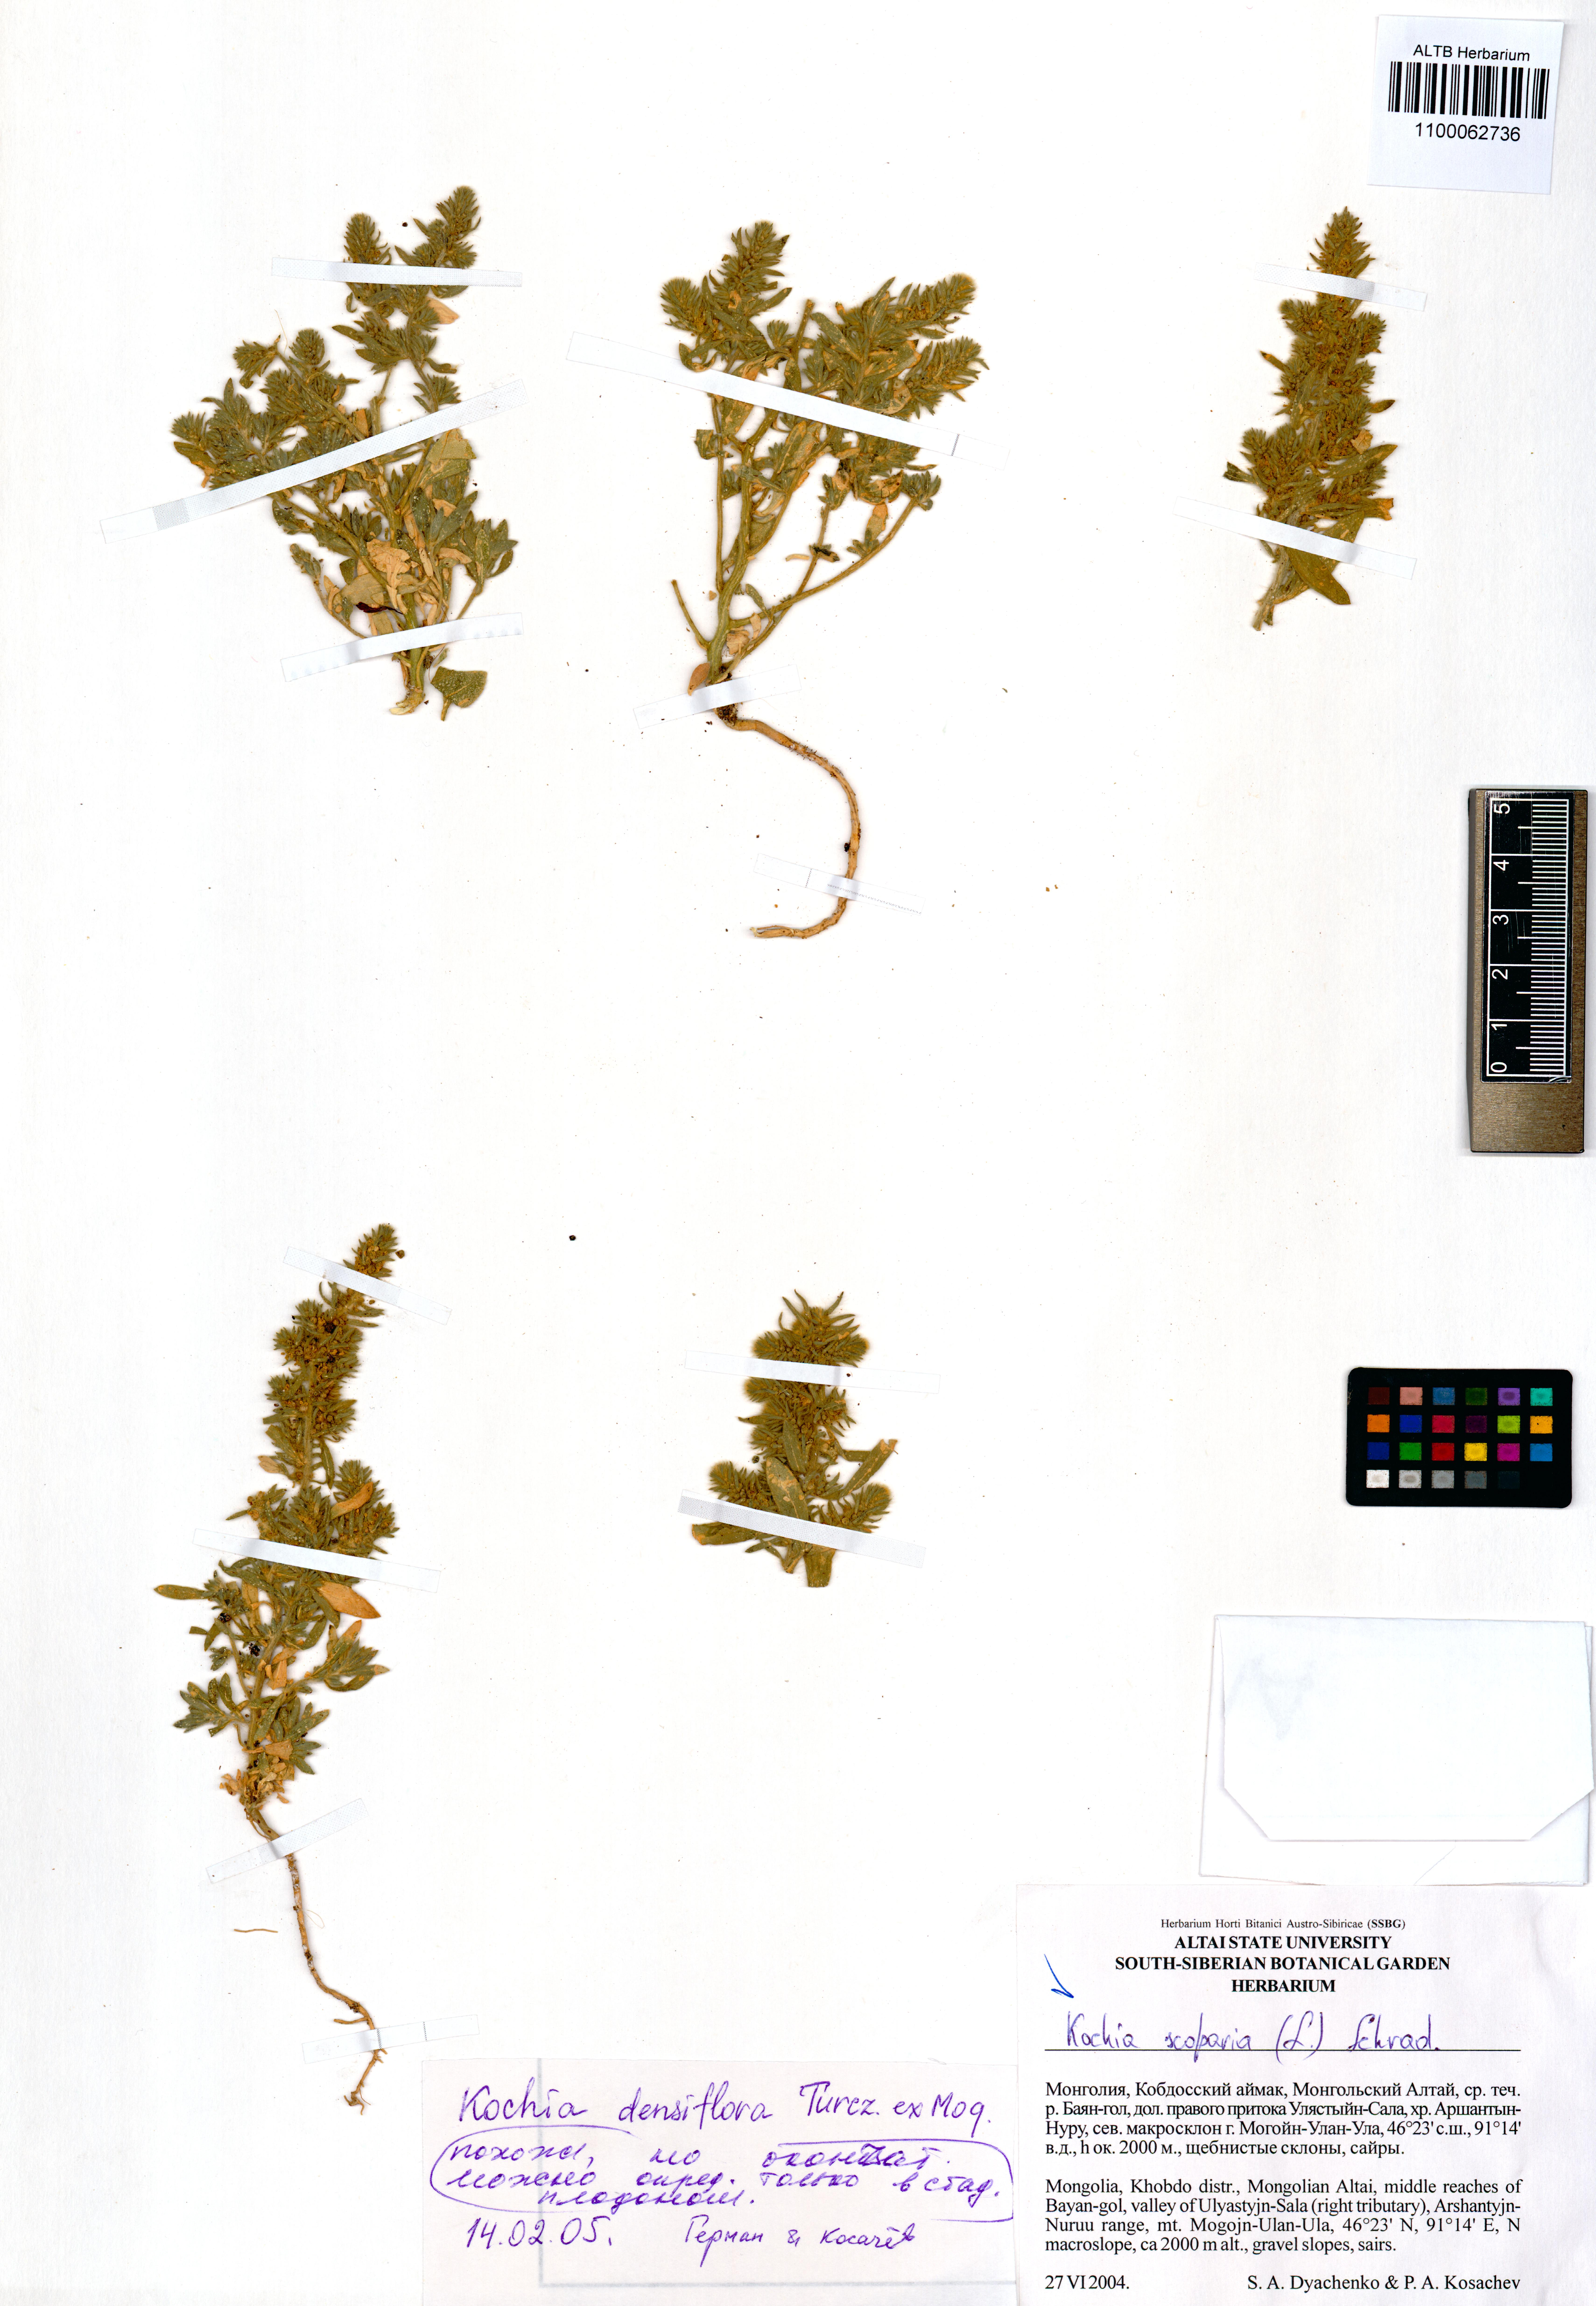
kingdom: Plantae
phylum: Tracheophyta
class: Magnoliopsida
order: Caryophyllales
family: Amaranthaceae
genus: Bassia
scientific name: Bassia scoparia
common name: Belvedere
